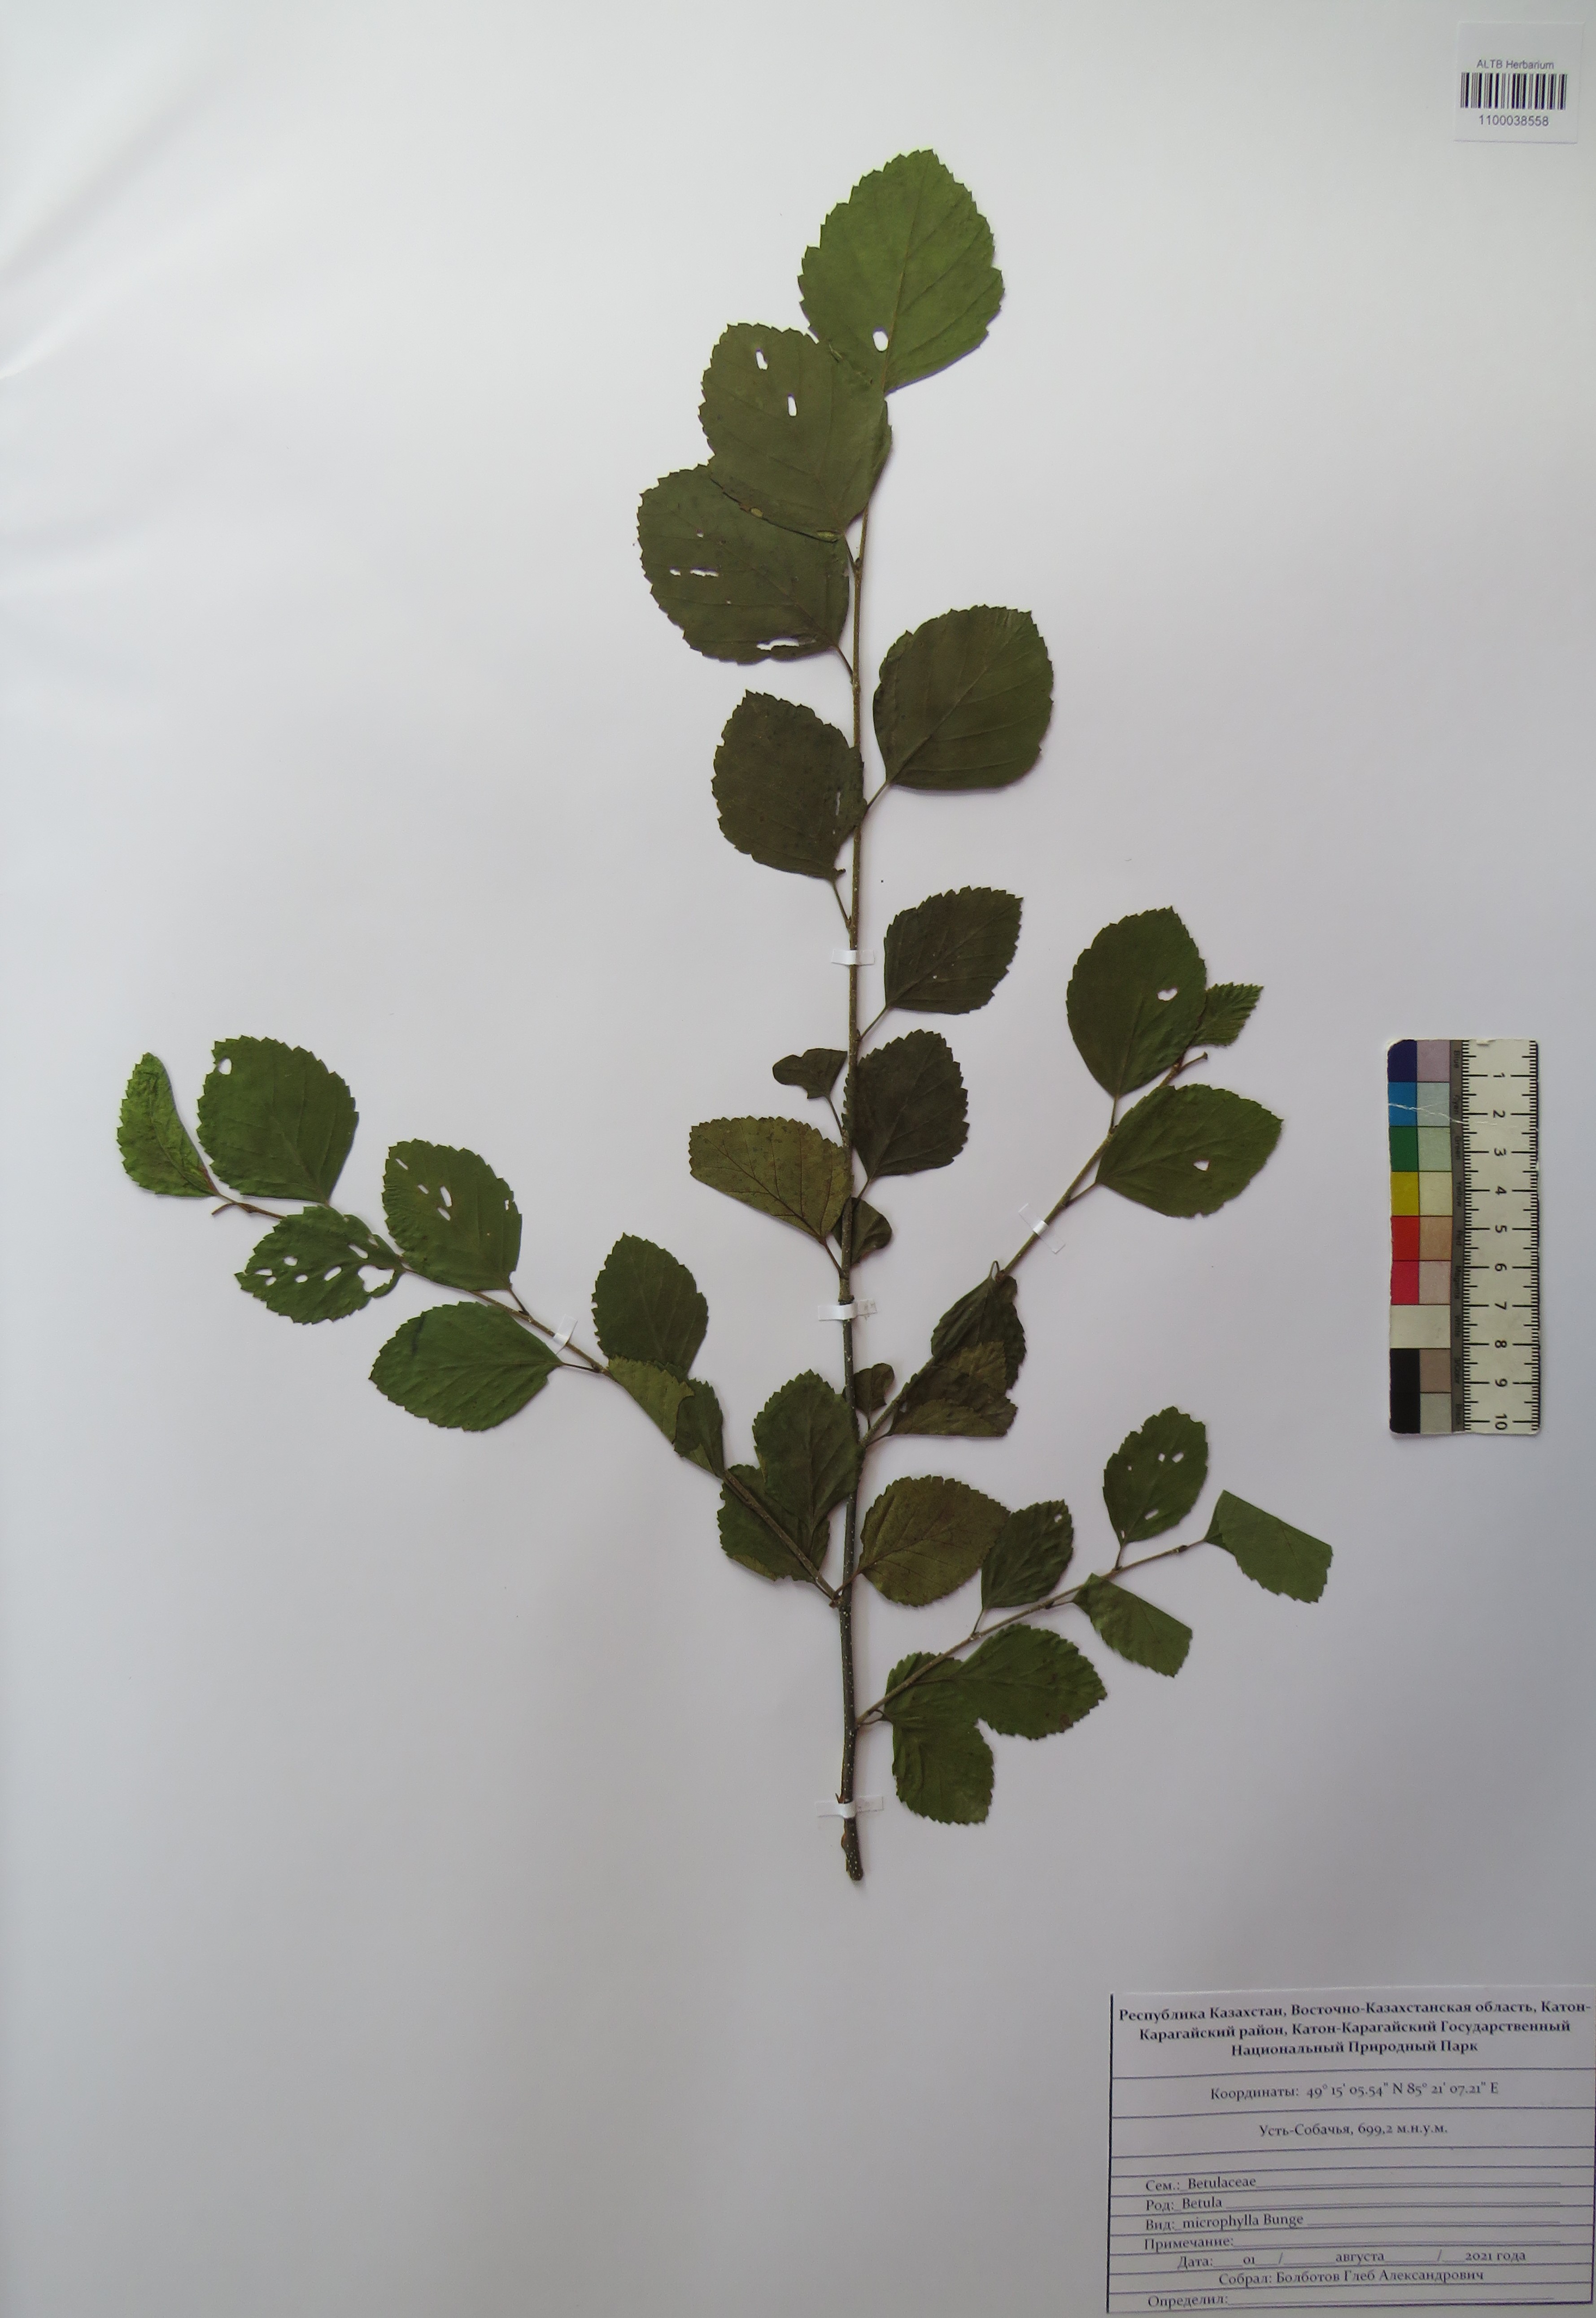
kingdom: Plantae
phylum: Tracheophyta
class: Magnoliopsida
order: Fagales
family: Betulaceae
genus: Betula
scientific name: Betula microphylla
